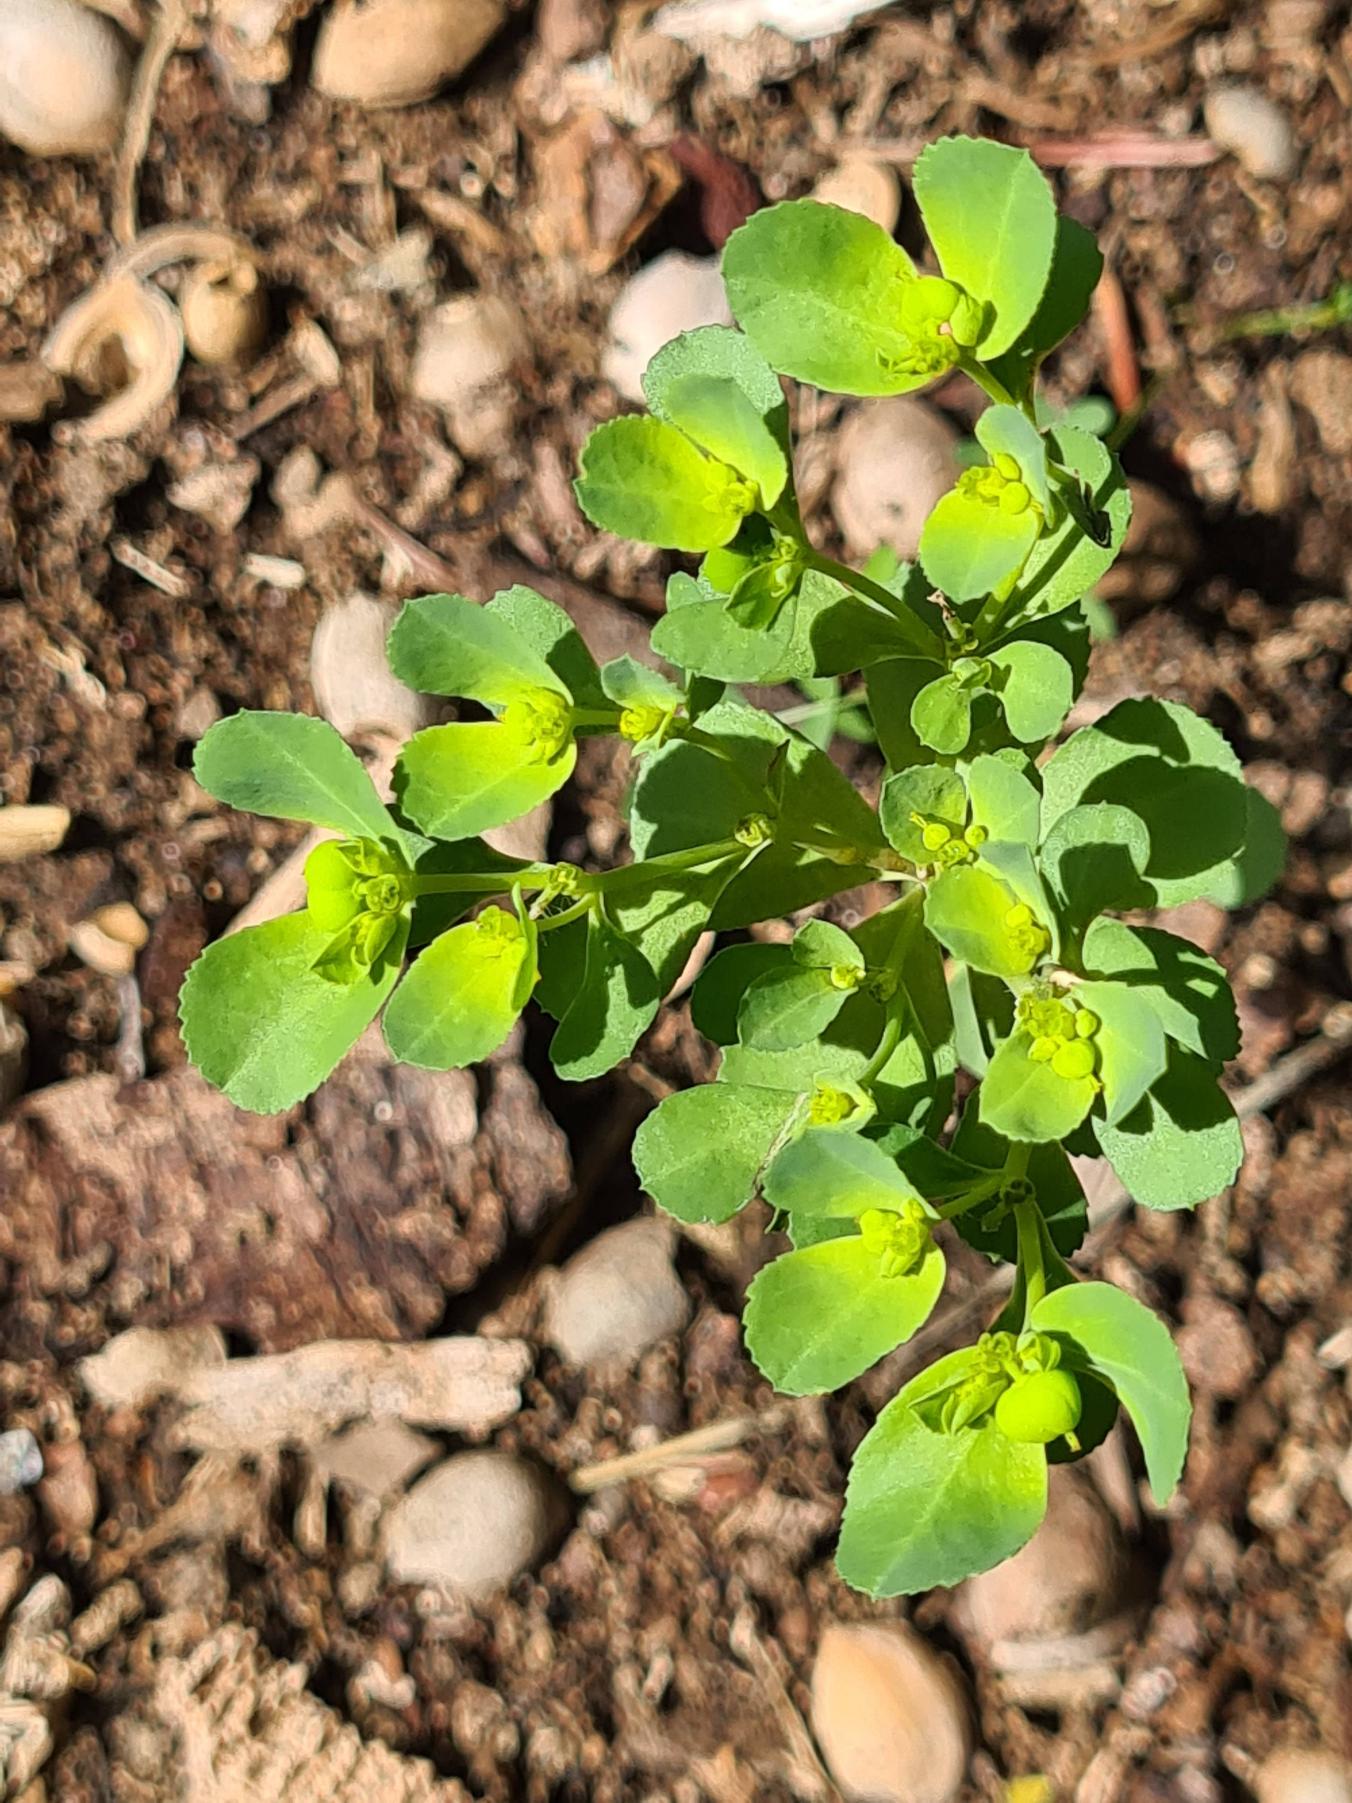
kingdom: Plantae
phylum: Tracheophyta
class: Magnoliopsida
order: Malpighiales
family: Euphorbiaceae
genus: Euphorbia
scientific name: Euphorbia peplus
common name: Gaffel-vortemælk
